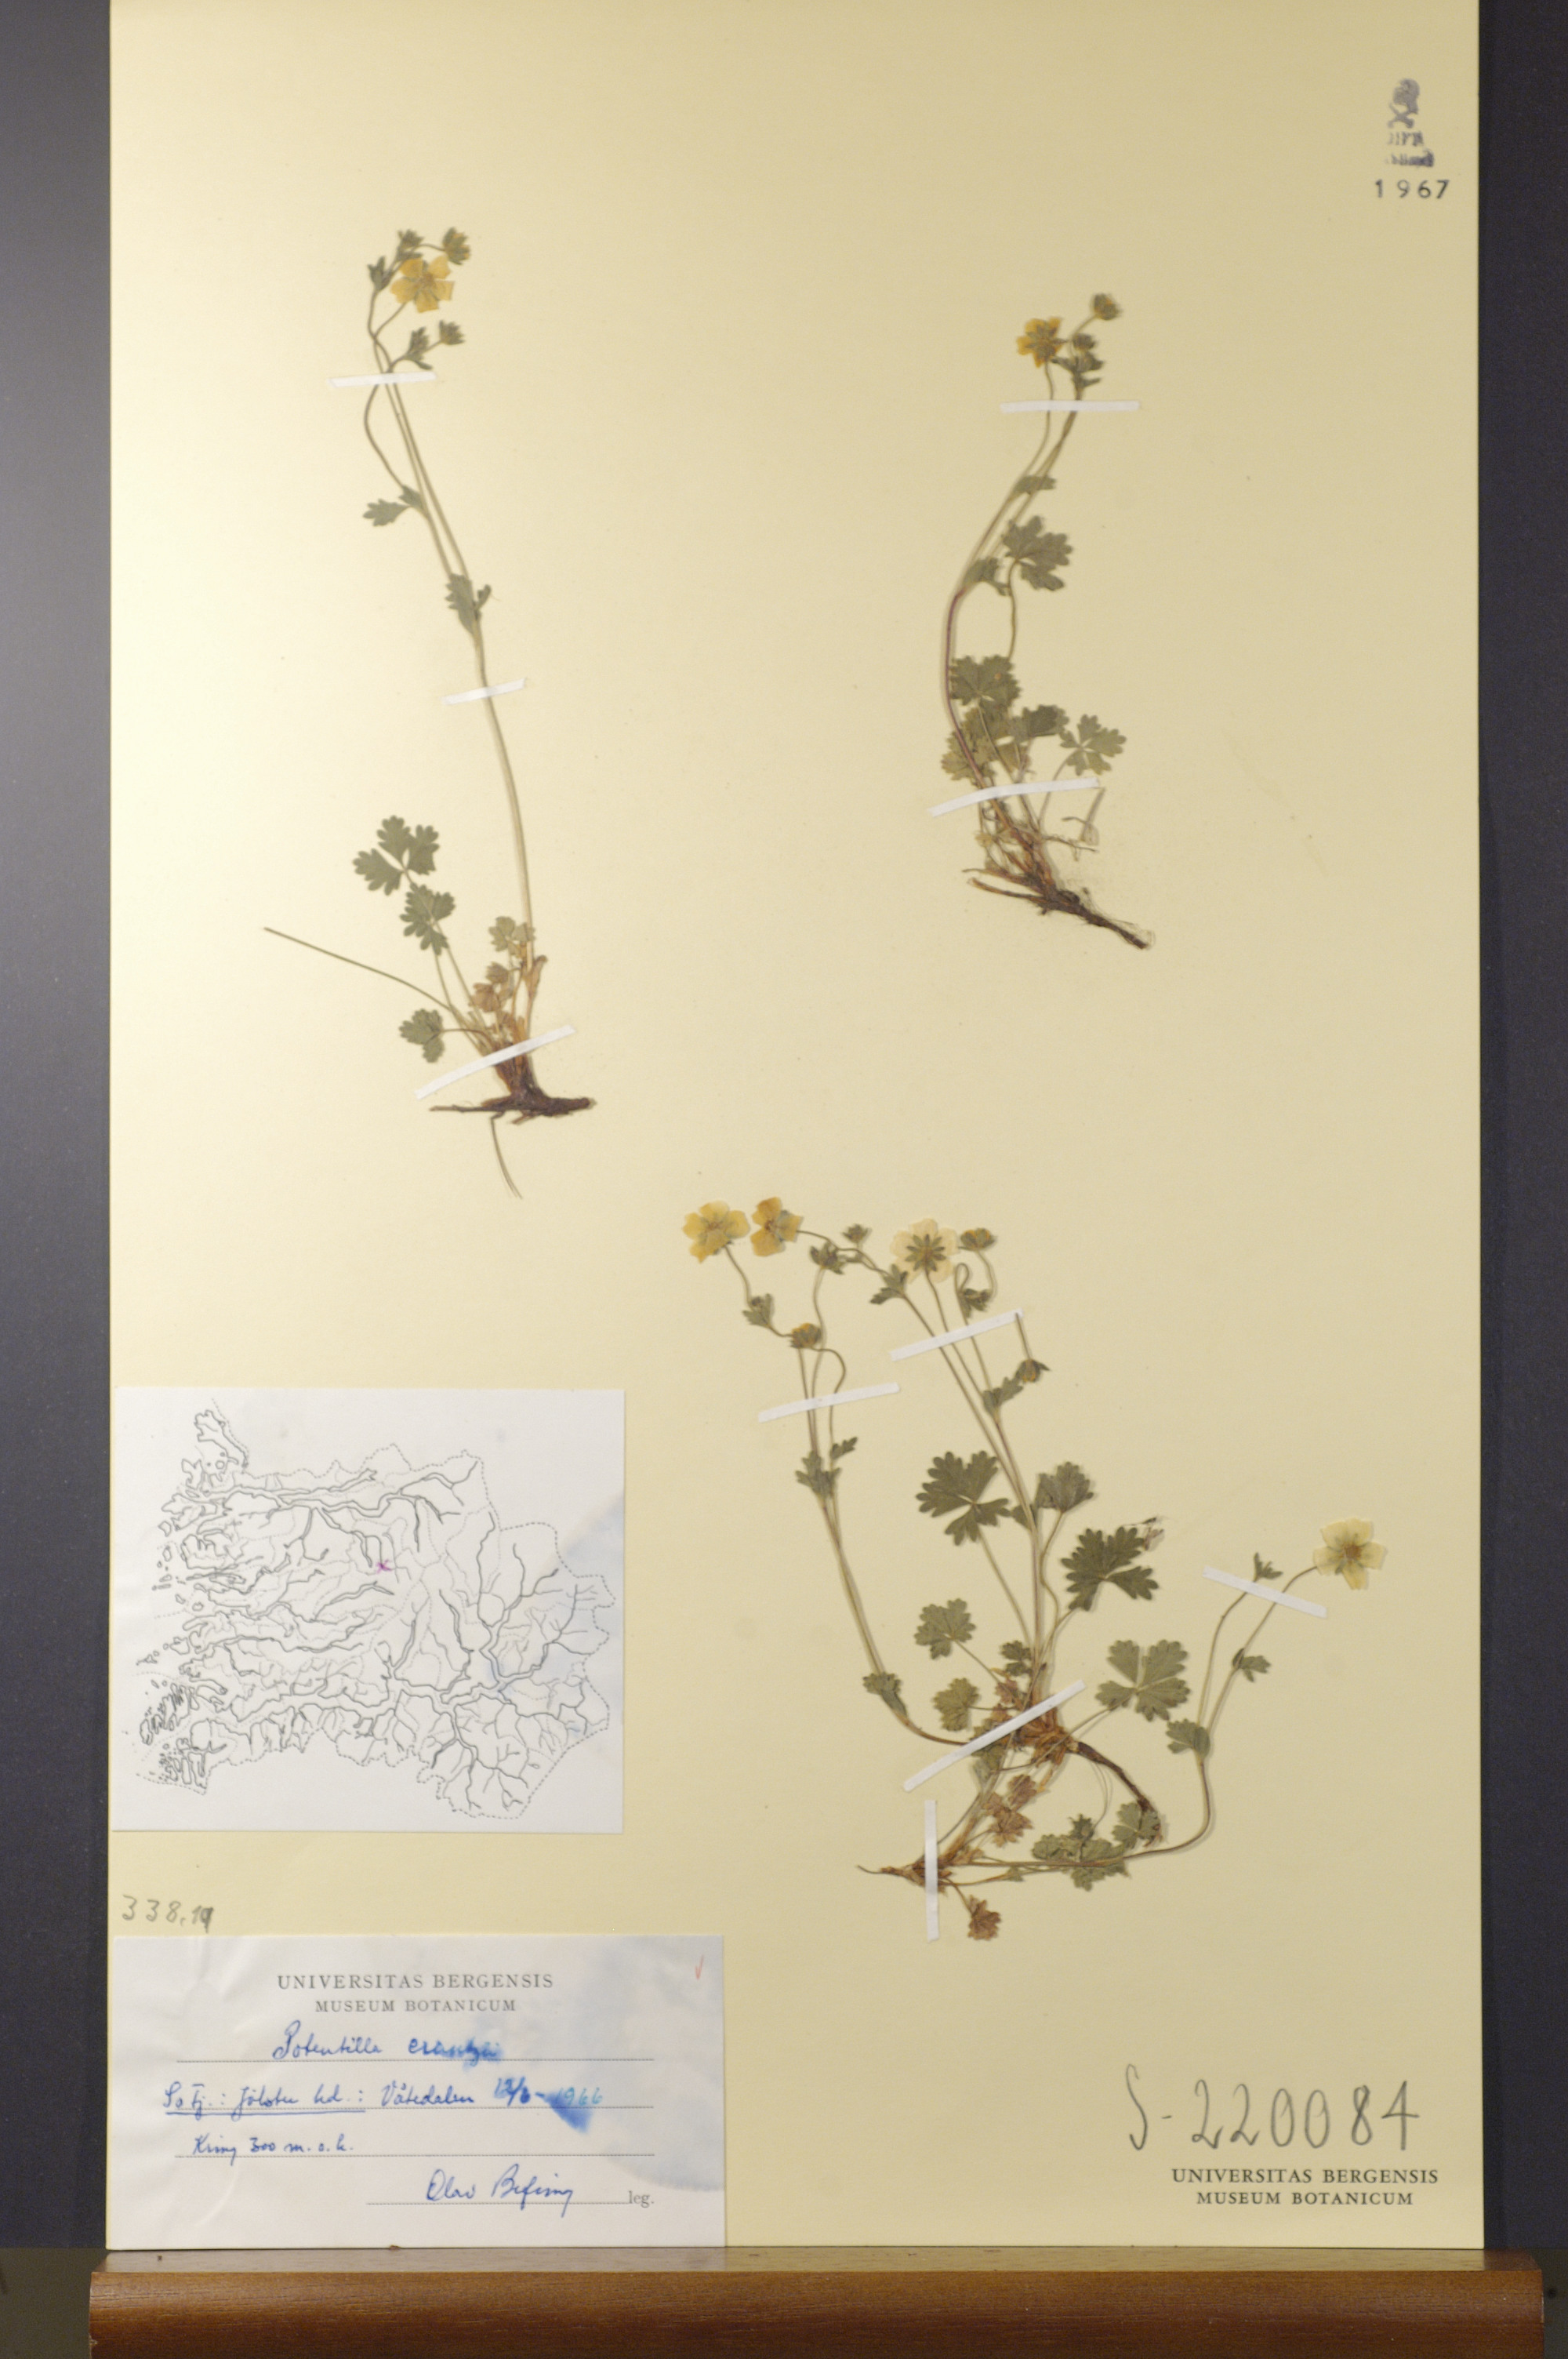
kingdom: Plantae
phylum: Tracheophyta
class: Magnoliopsida
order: Rosales
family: Rosaceae
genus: Potentilla
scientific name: Potentilla crantzii
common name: Alpine cinquefoil
